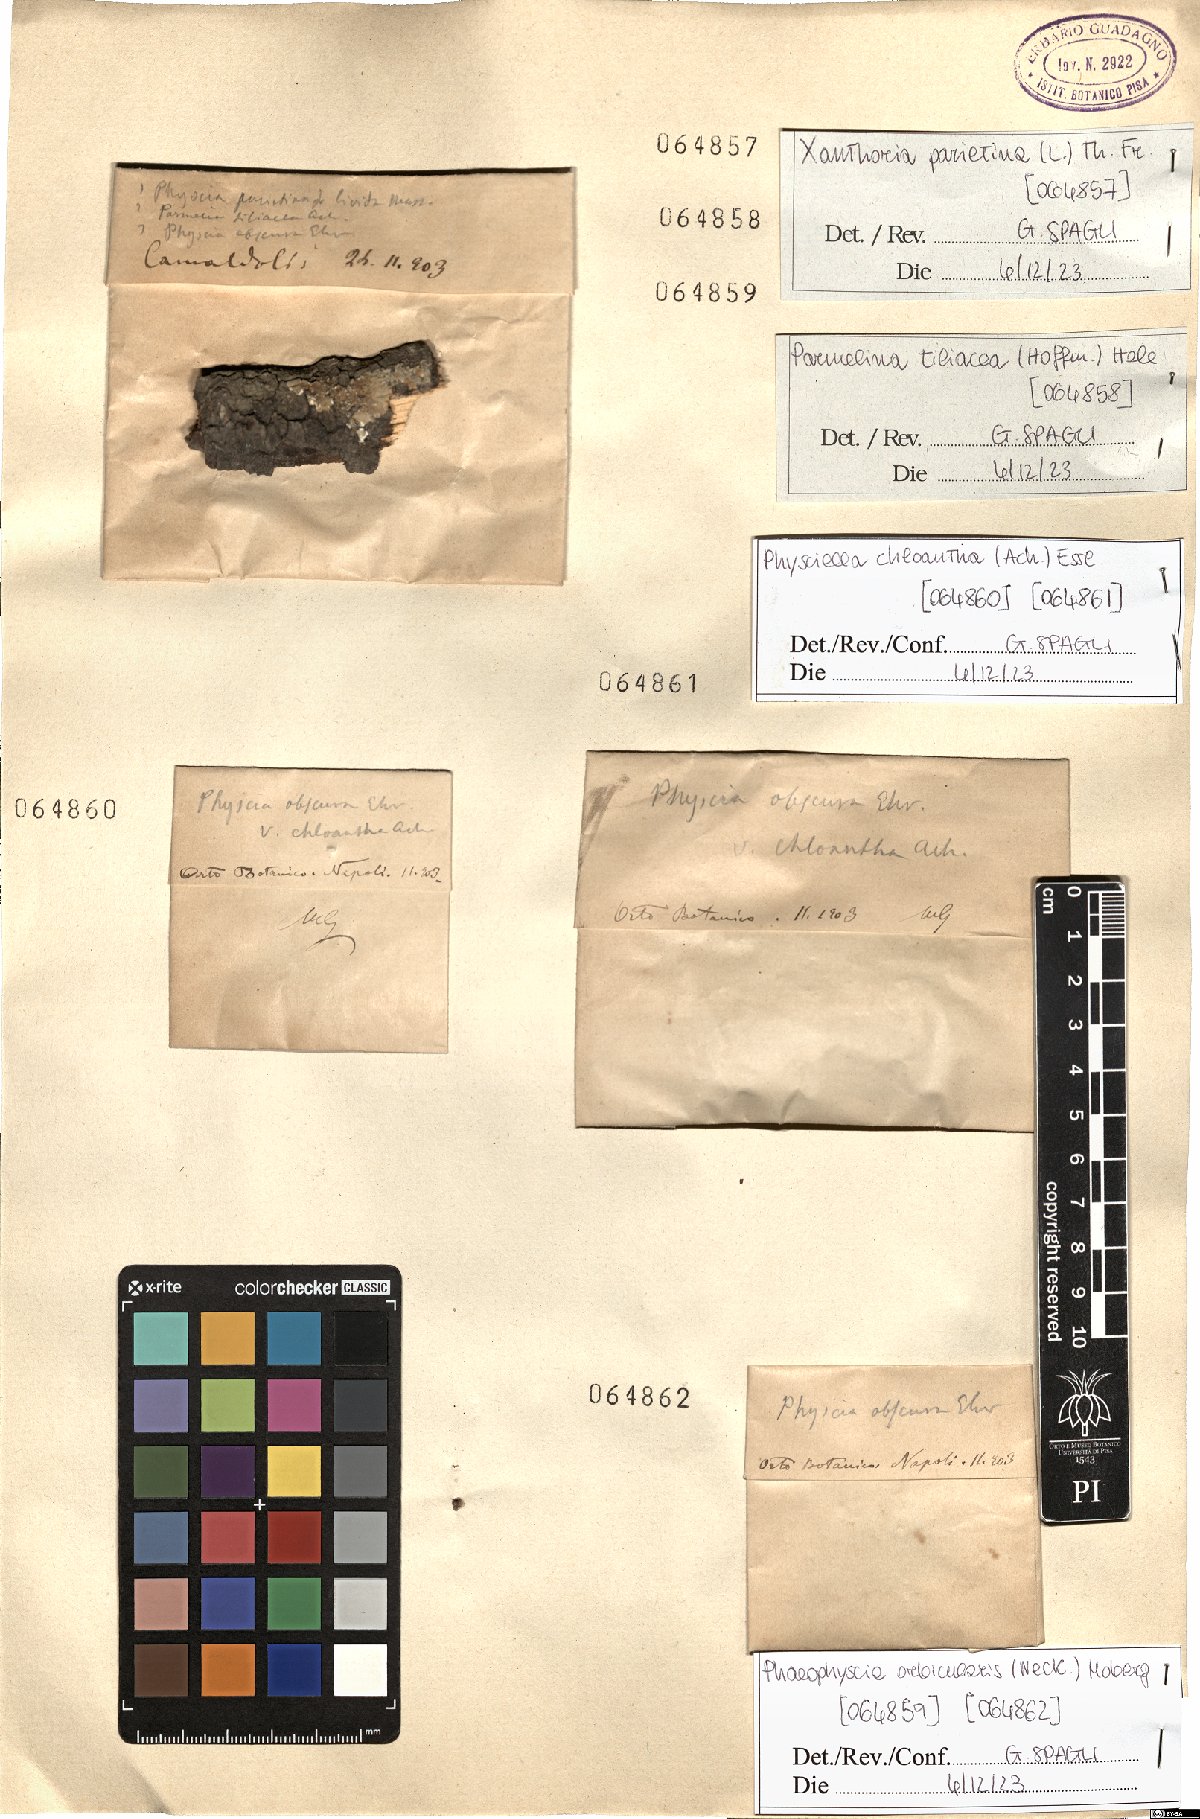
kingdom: Fungi
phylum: Ascomycota
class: Lecanoromycetes
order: Lecanorales
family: Parmeliaceae
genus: Parmelina
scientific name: Parmelina tiliacea
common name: Linden shield lichen
